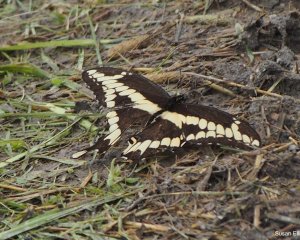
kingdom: Animalia
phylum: Arthropoda
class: Insecta
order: Lepidoptera
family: Papilionidae
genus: Papilio
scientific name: Papilio cresphontes
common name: Eastern Giant Swallowtail
